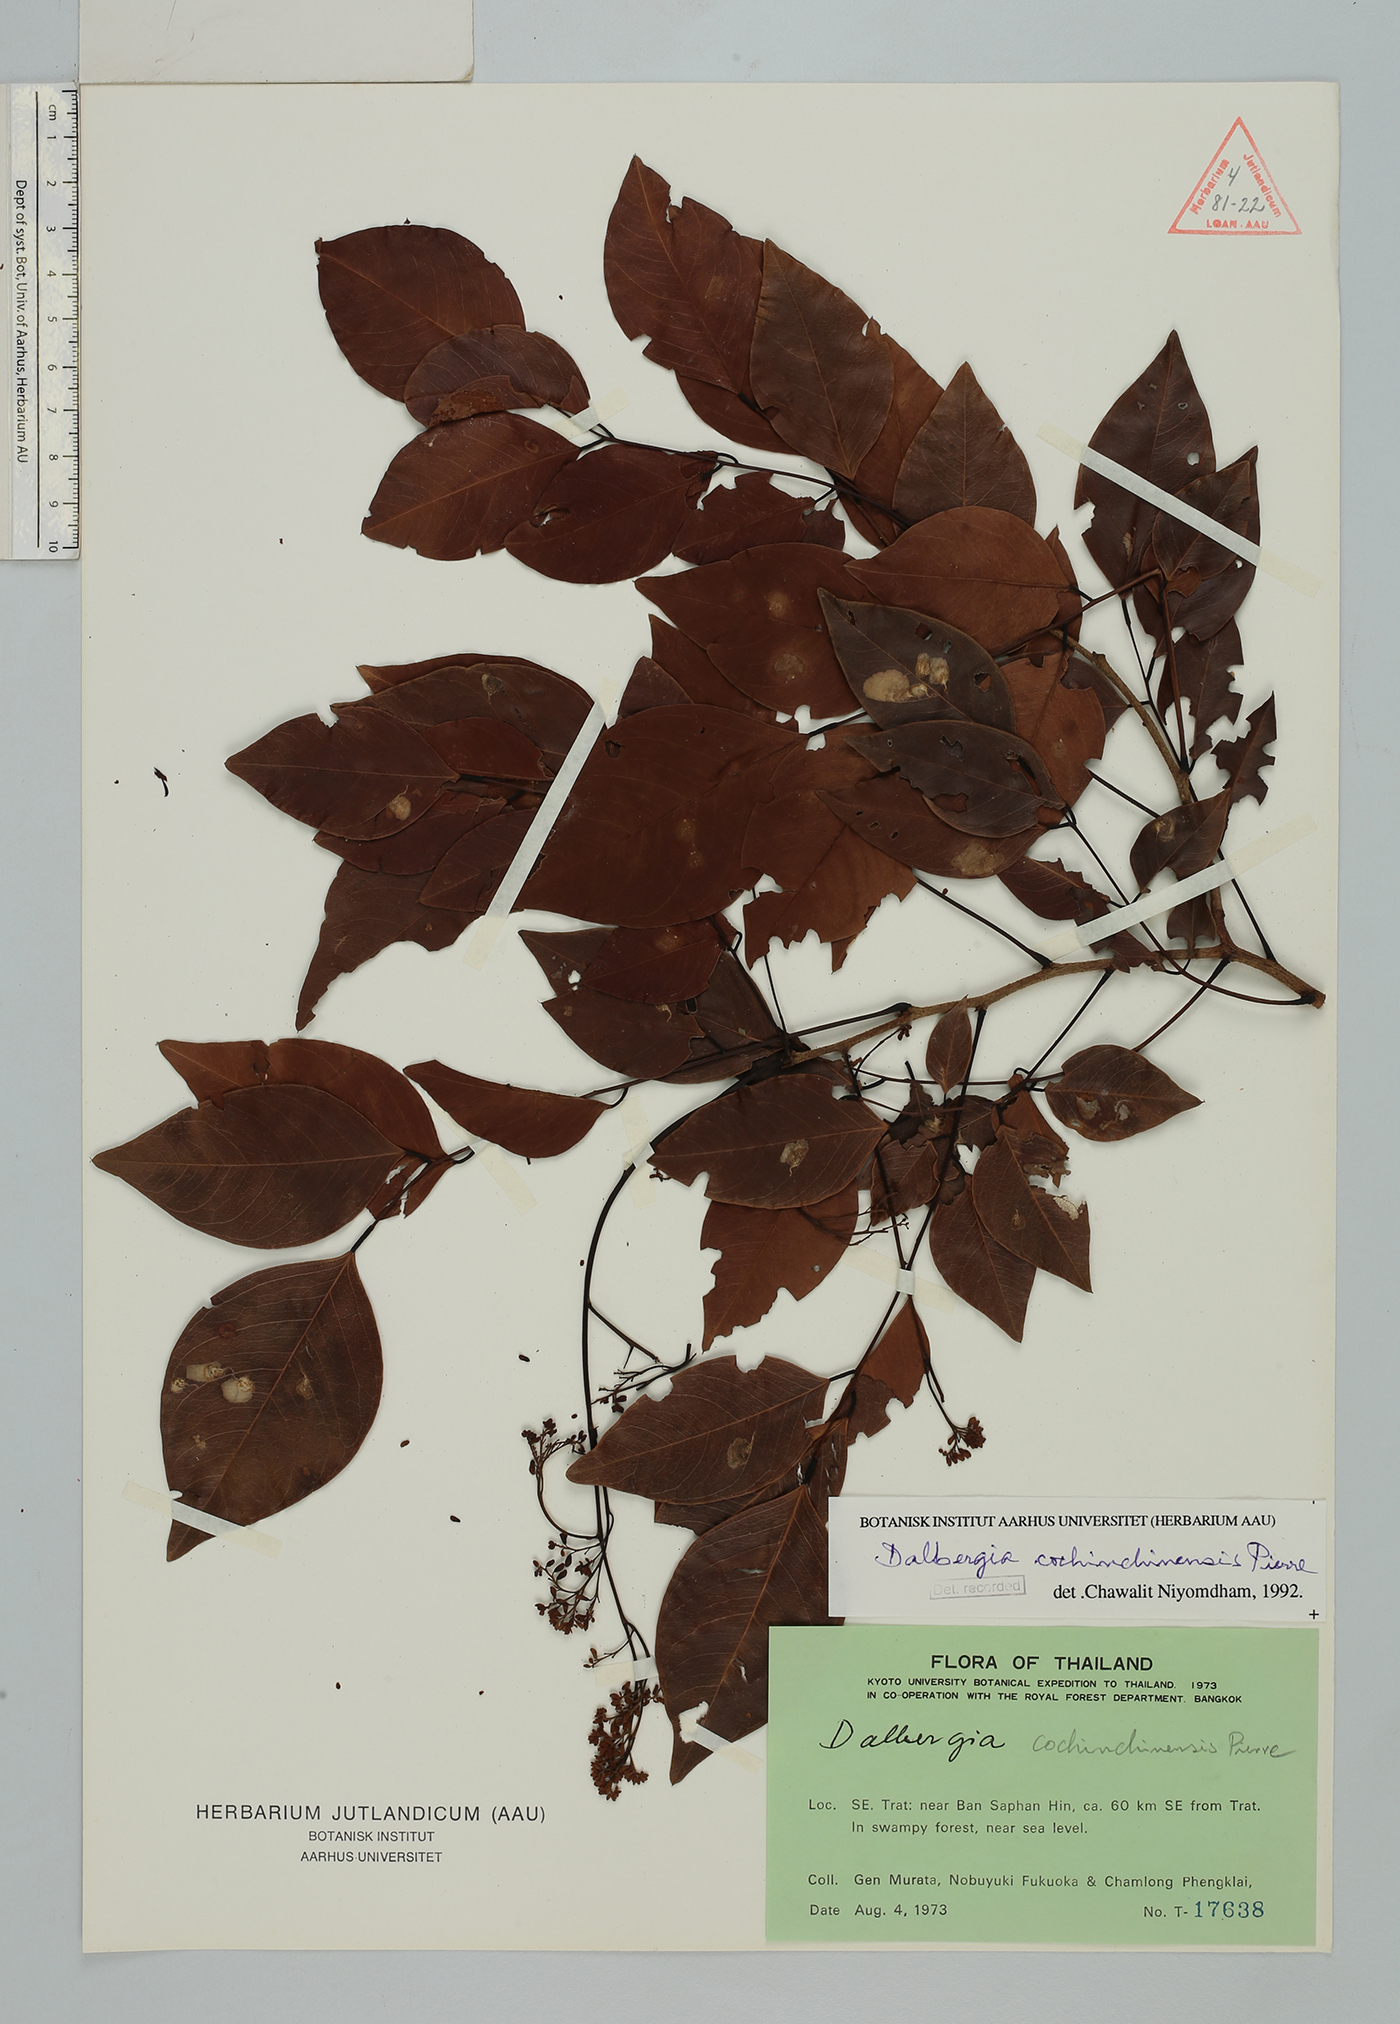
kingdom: Plantae
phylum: Tracheophyta
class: Magnoliopsida
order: Fabales
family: Fabaceae
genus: Dalbergia
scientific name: Dalbergia cochinchinensis
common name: Siamese rosewood
